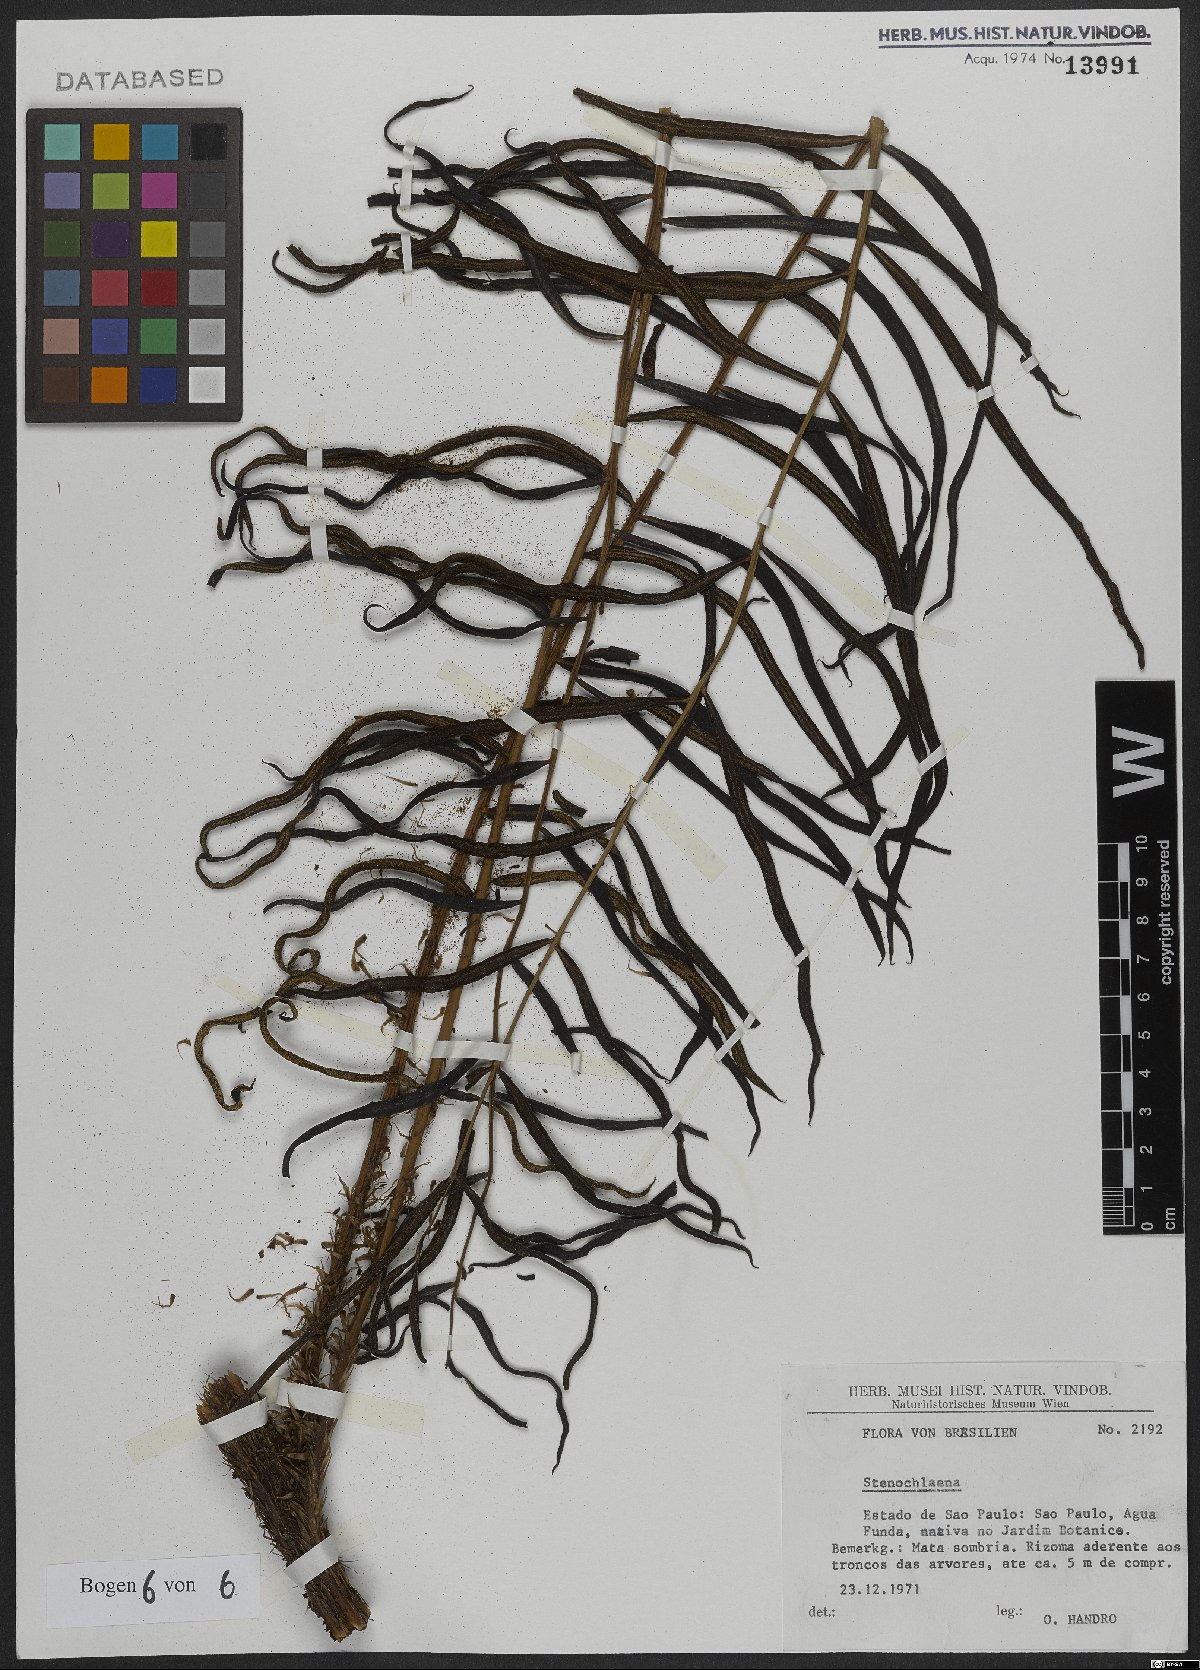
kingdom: Plantae
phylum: Tracheophyta
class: Polypodiopsida
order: Polypodiales
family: Blechnaceae
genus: Stenochlaena
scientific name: Stenochlaena
